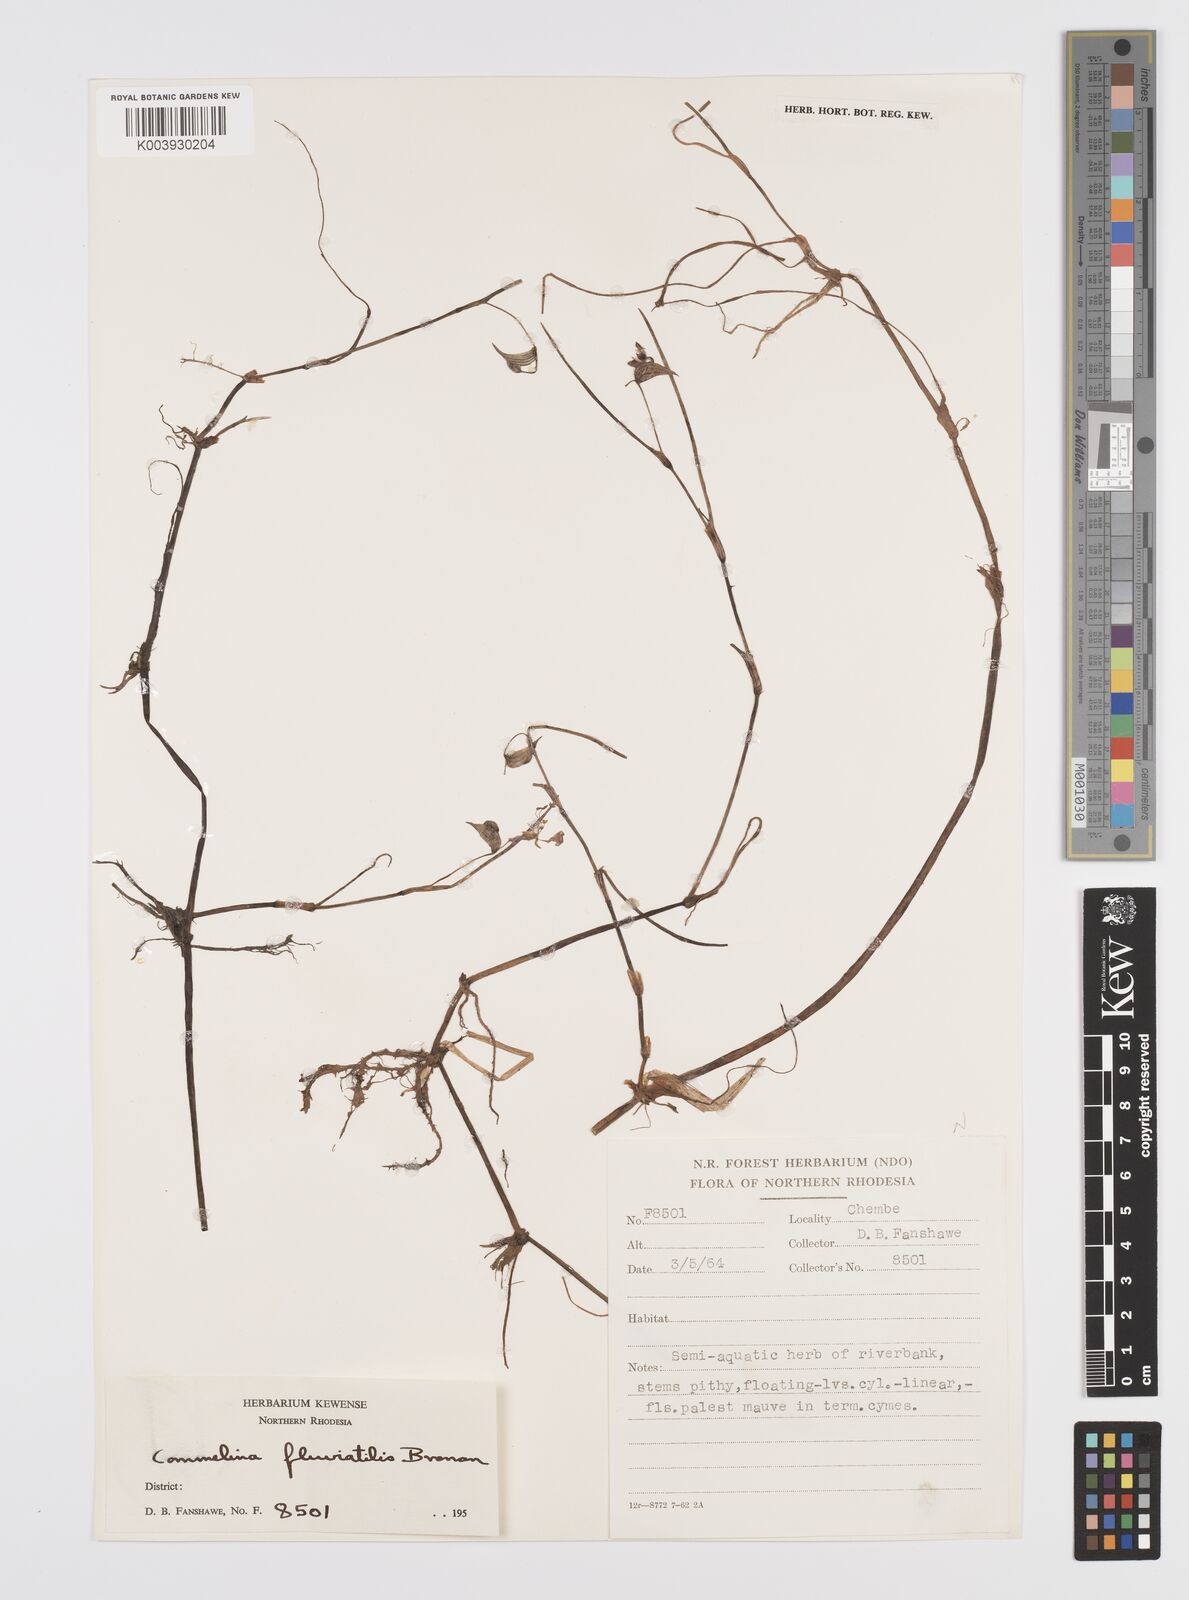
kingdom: Plantae
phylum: Tracheophyta
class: Liliopsida
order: Commelinales
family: Commelinaceae
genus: Commelina
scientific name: Commelina fluviatilis
